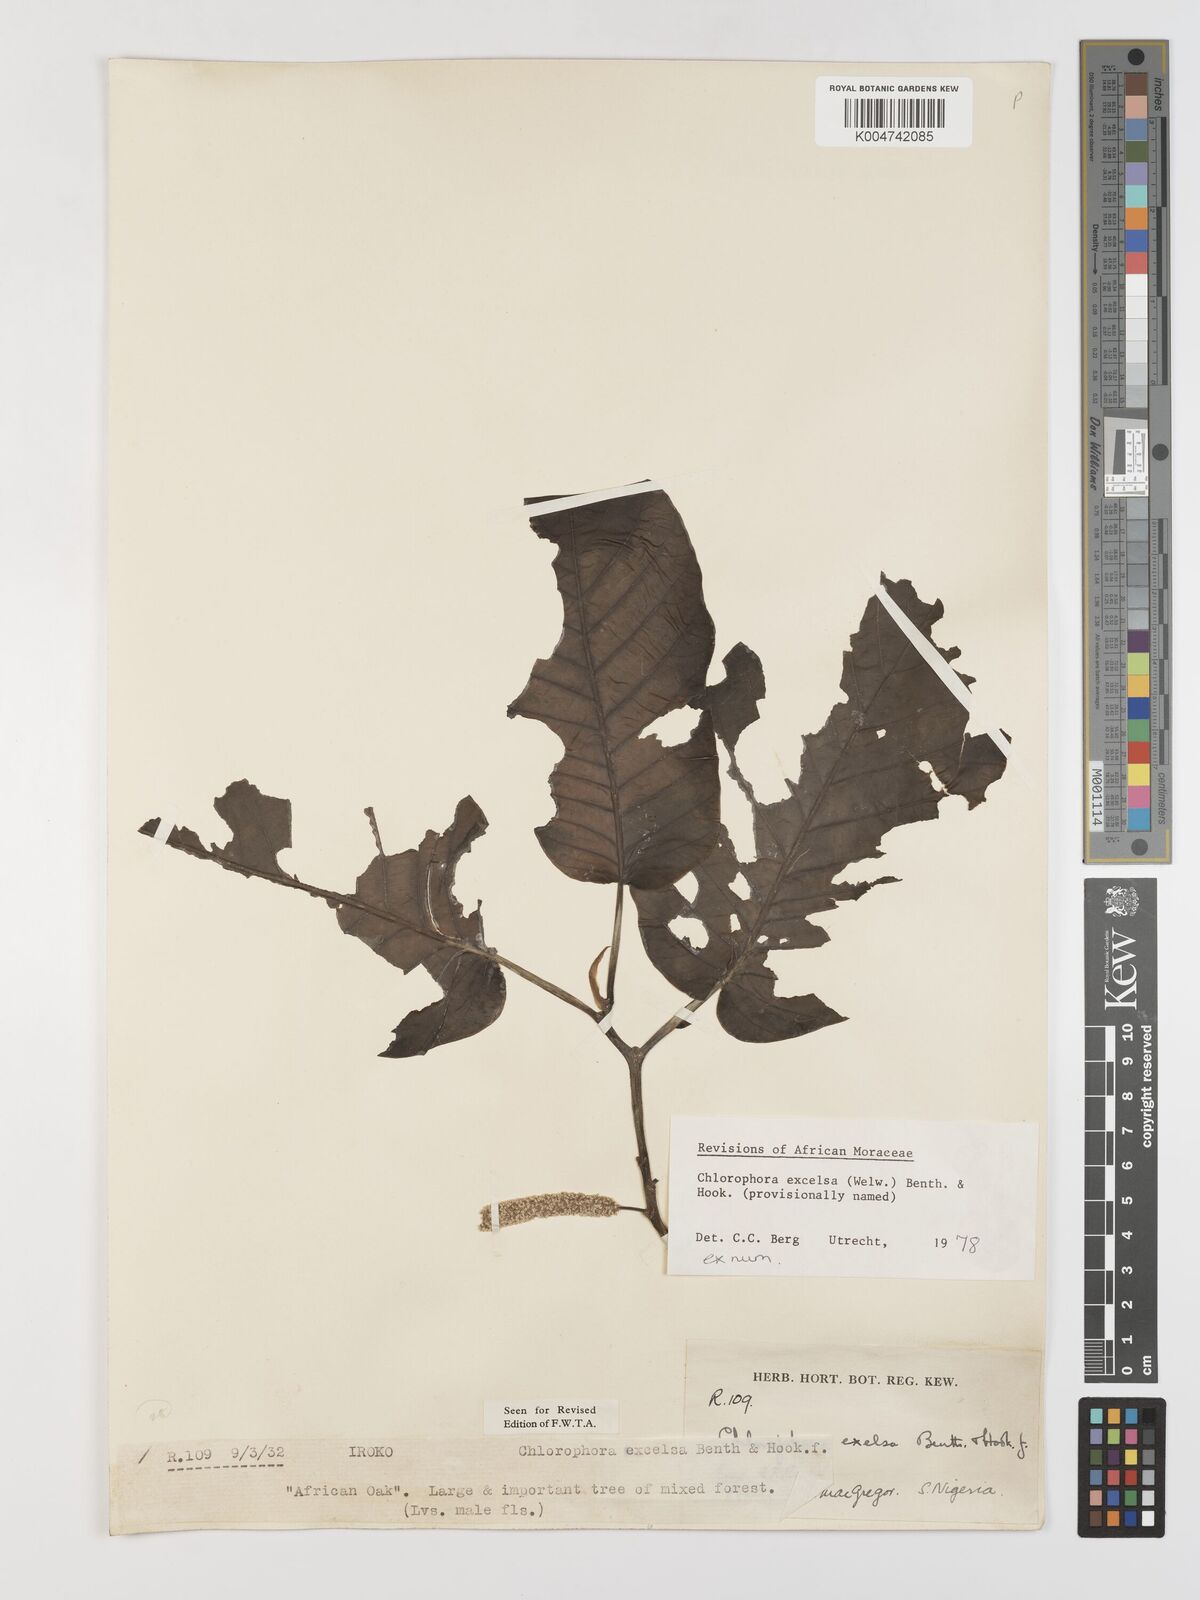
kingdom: Plantae
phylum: Tracheophyta
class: Magnoliopsida
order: Rosales
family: Moraceae
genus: Milicia
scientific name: Milicia excelsa
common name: African teak
